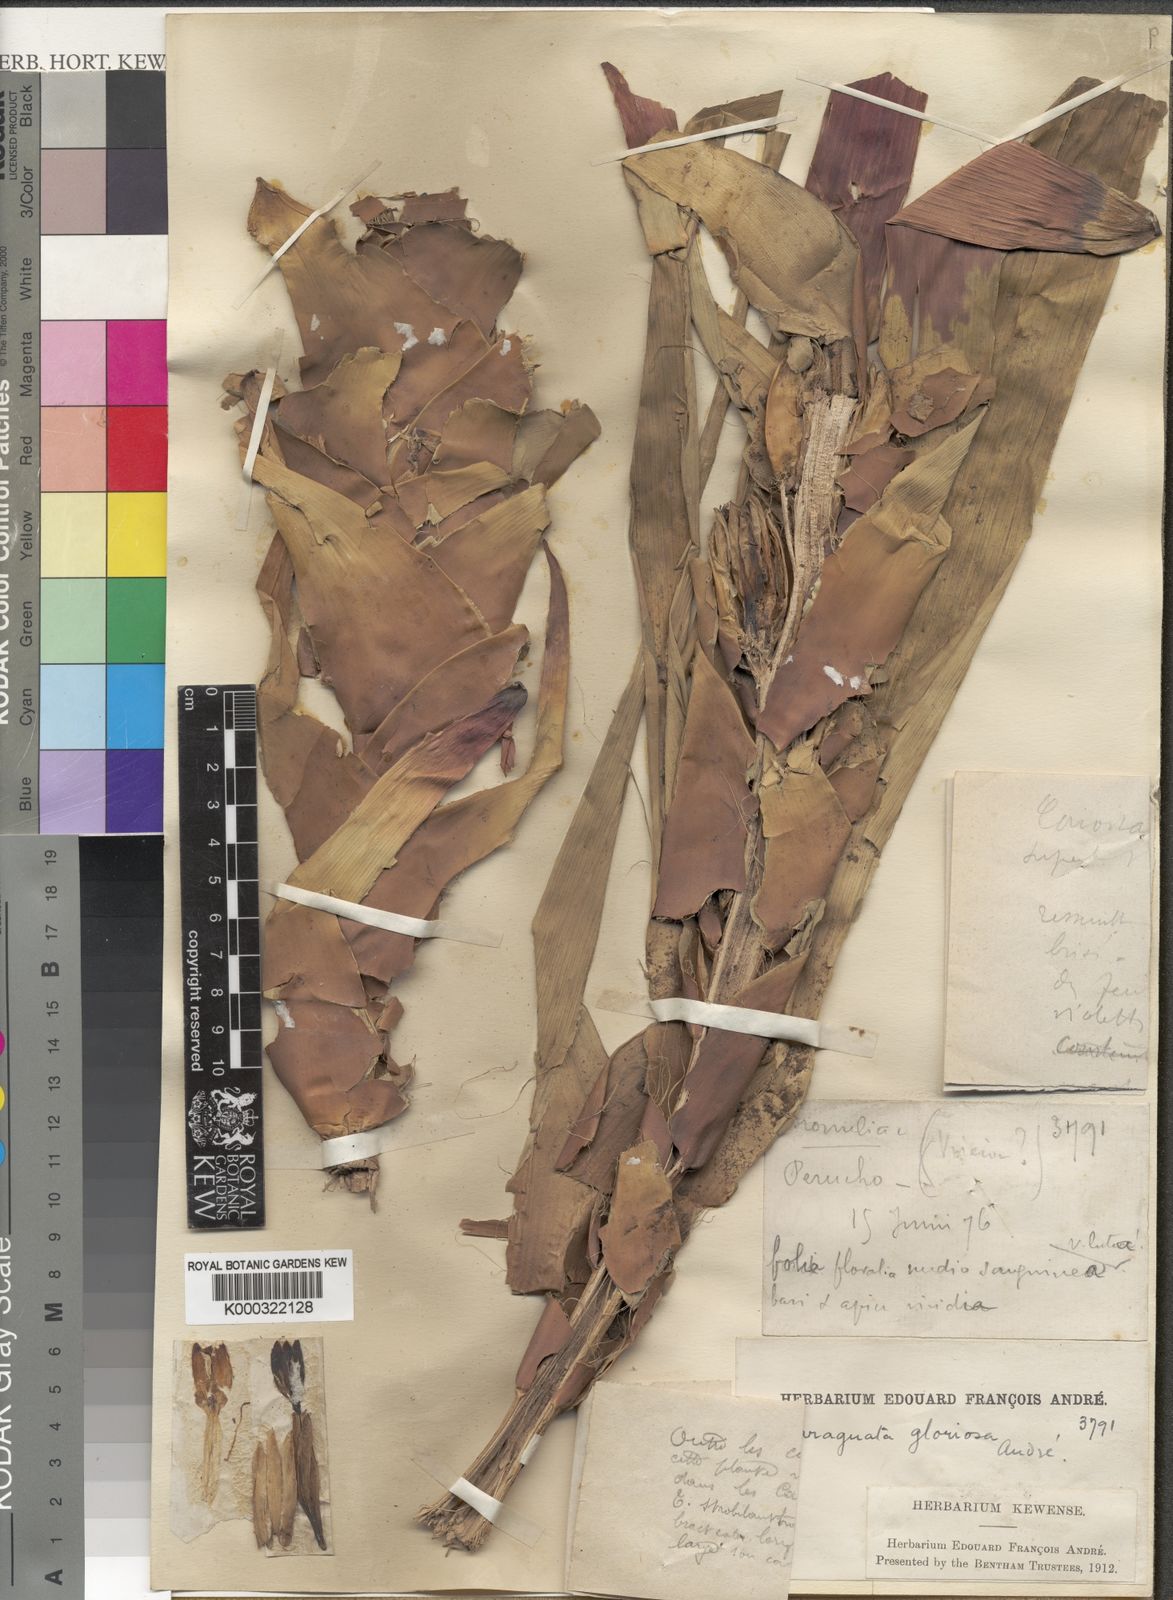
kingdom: Plantae
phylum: Tracheophyta
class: Liliopsida
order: Poales
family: Bromeliaceae
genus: Guzmania
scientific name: Guzmania gloriosa
